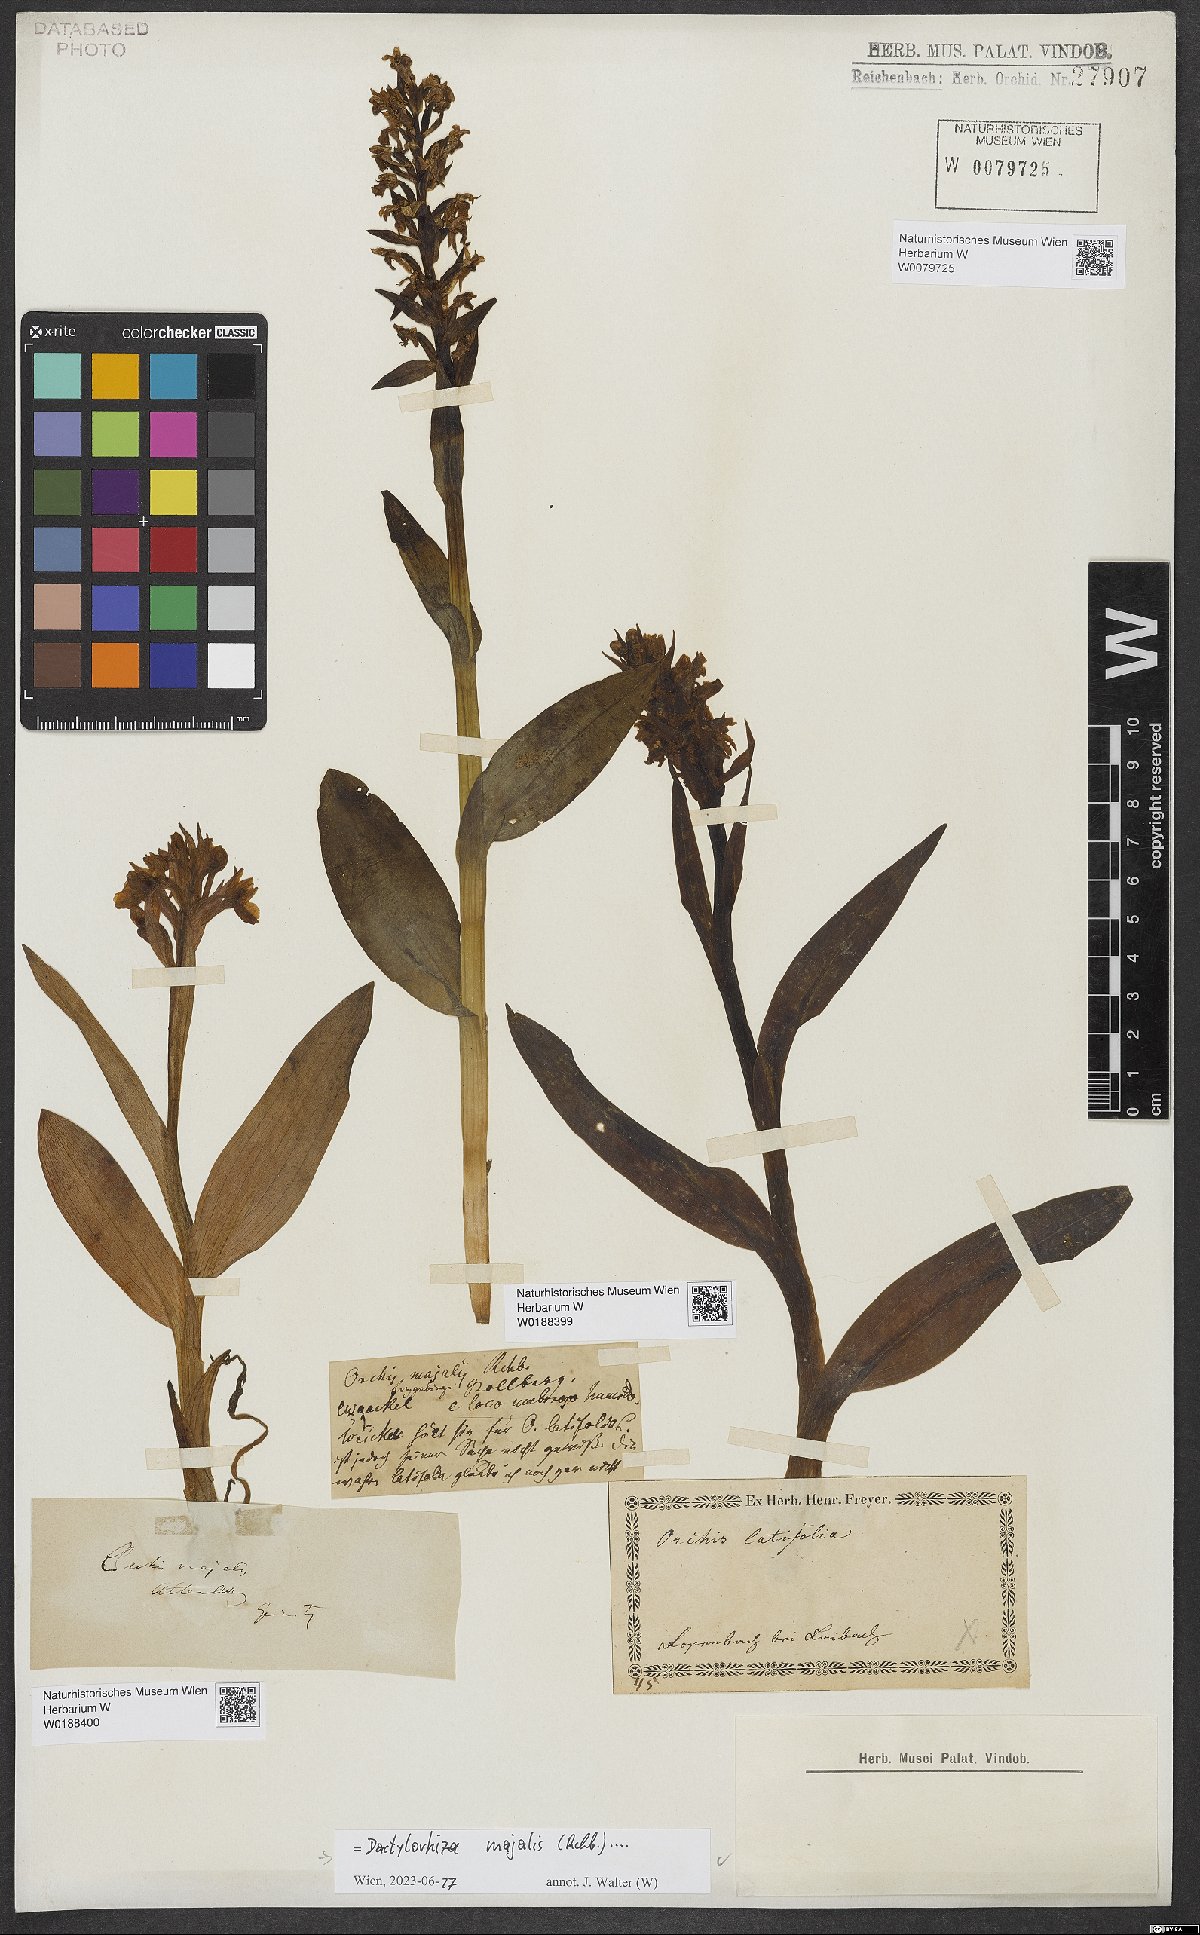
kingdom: Plantae
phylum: Tracheophyta
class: Liliopsida
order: Asparagales
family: Orchidaceae
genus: Dactylorhiza
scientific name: Dactylorhiza majalis
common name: Marsh orchid
